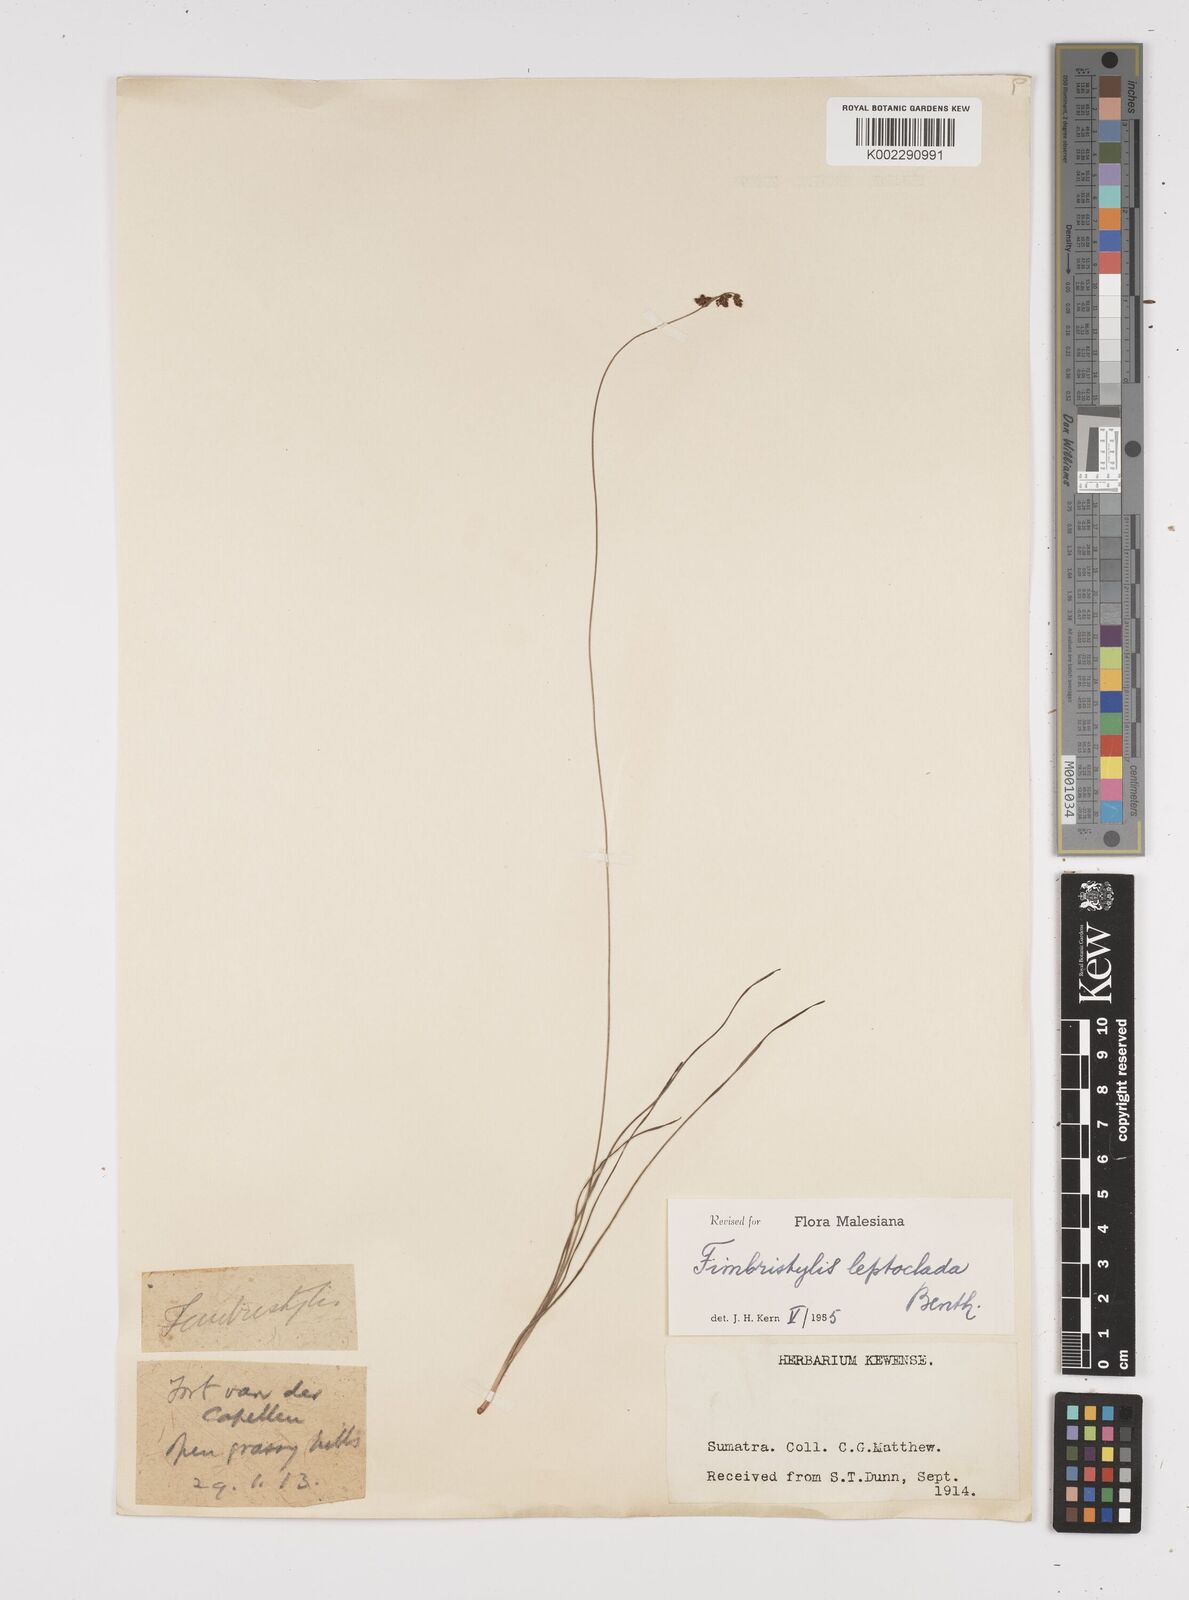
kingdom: Plantae
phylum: Tracheophyta
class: Liliopsida
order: Poales
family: Cyperaceae
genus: Fimbristylis
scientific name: Fimbristylis leptoclada
